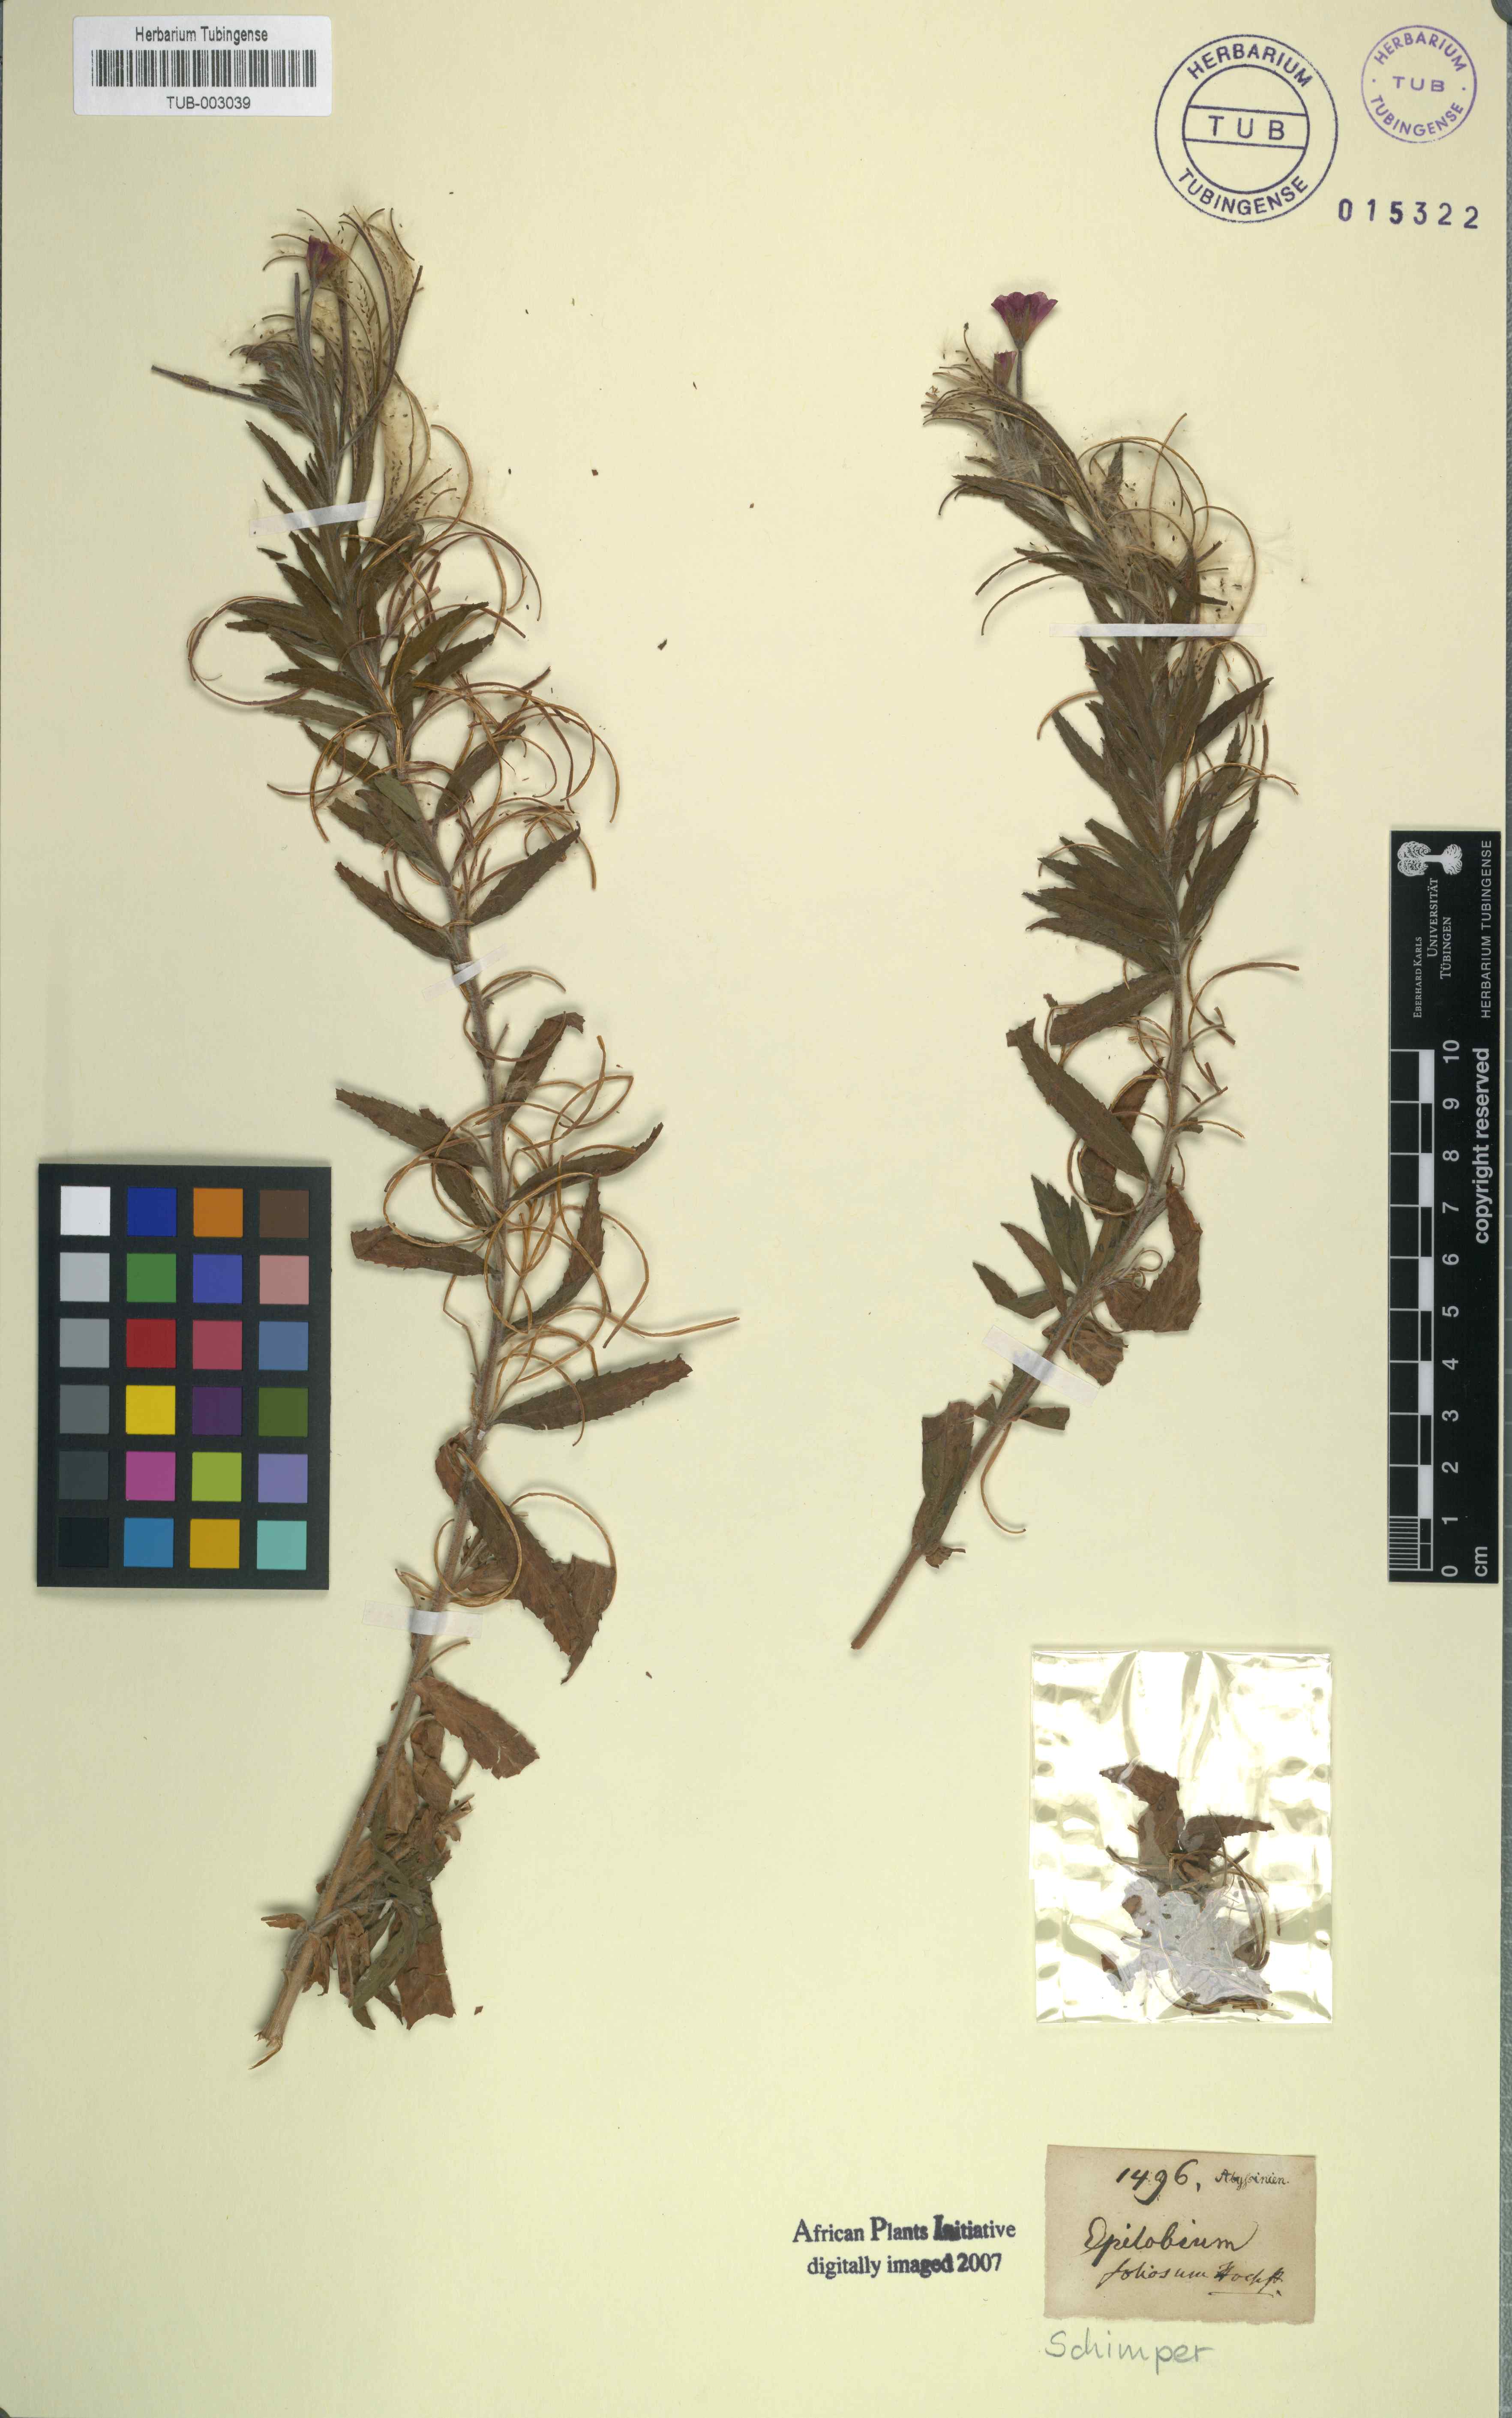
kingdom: Plantae
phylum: Tracheophyta
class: Magnoliopsida
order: Myrtales
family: Onagraceae
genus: Epilobium
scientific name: Epilobium hirsutum
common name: Great willowherb
